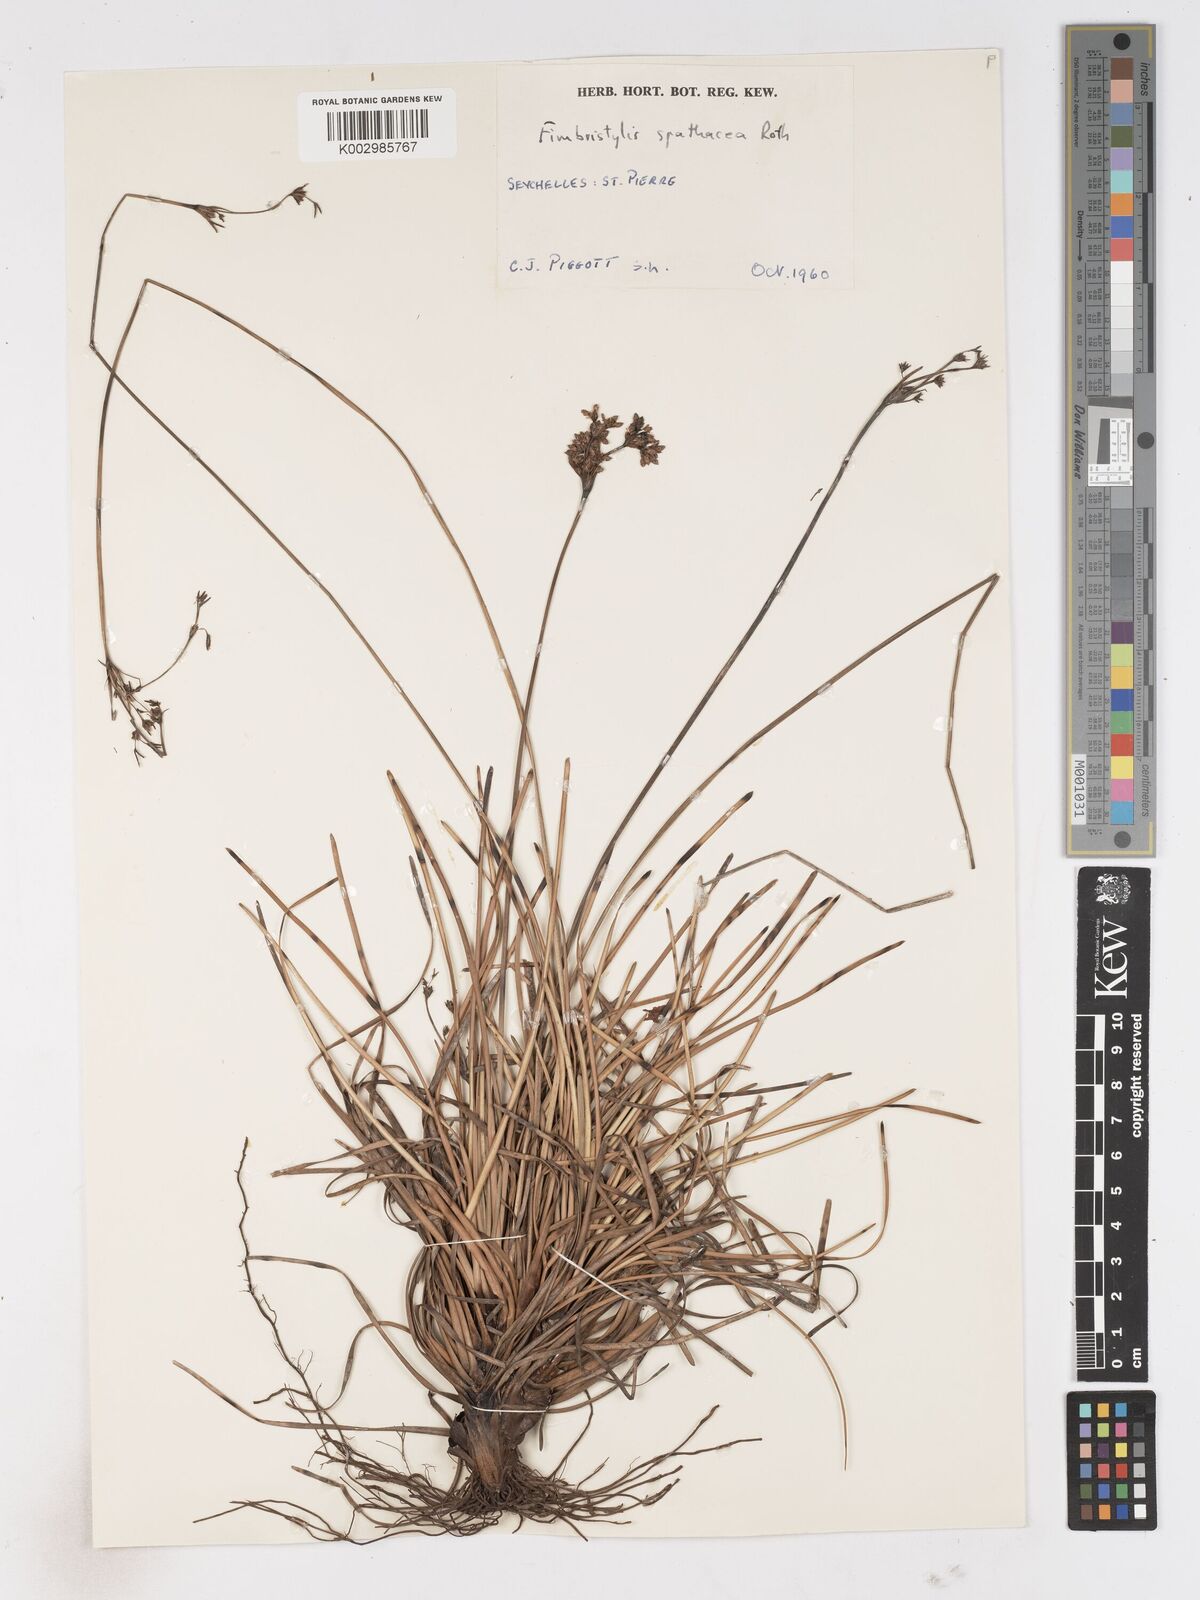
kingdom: Plantae
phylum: Tracheophyta
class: Liliopsida
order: Poales
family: Cyperaceae
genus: Fimbristylis
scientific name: Fimbristylis cymosa
